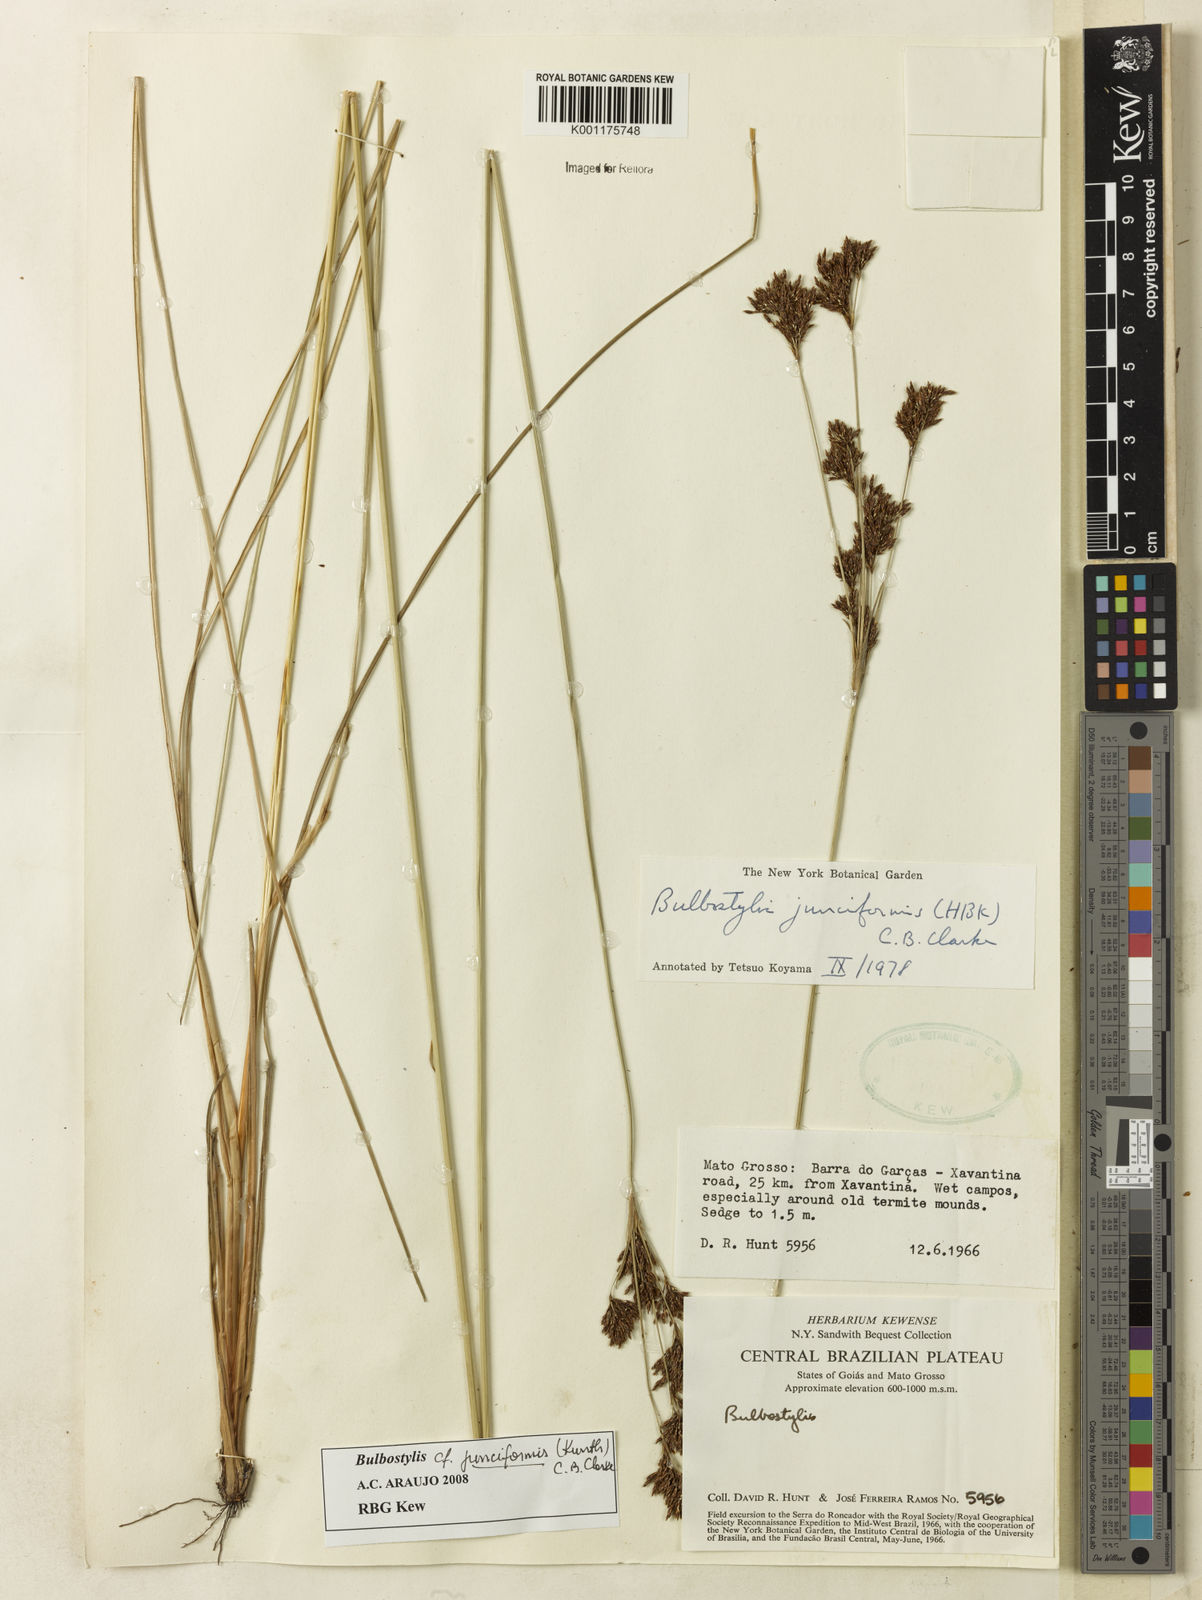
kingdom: Plantae
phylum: Tracheophyta
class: Liliopsida
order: Poales
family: Cyperaceae
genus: Bulbostylis
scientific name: Bulbostylis junciformis
